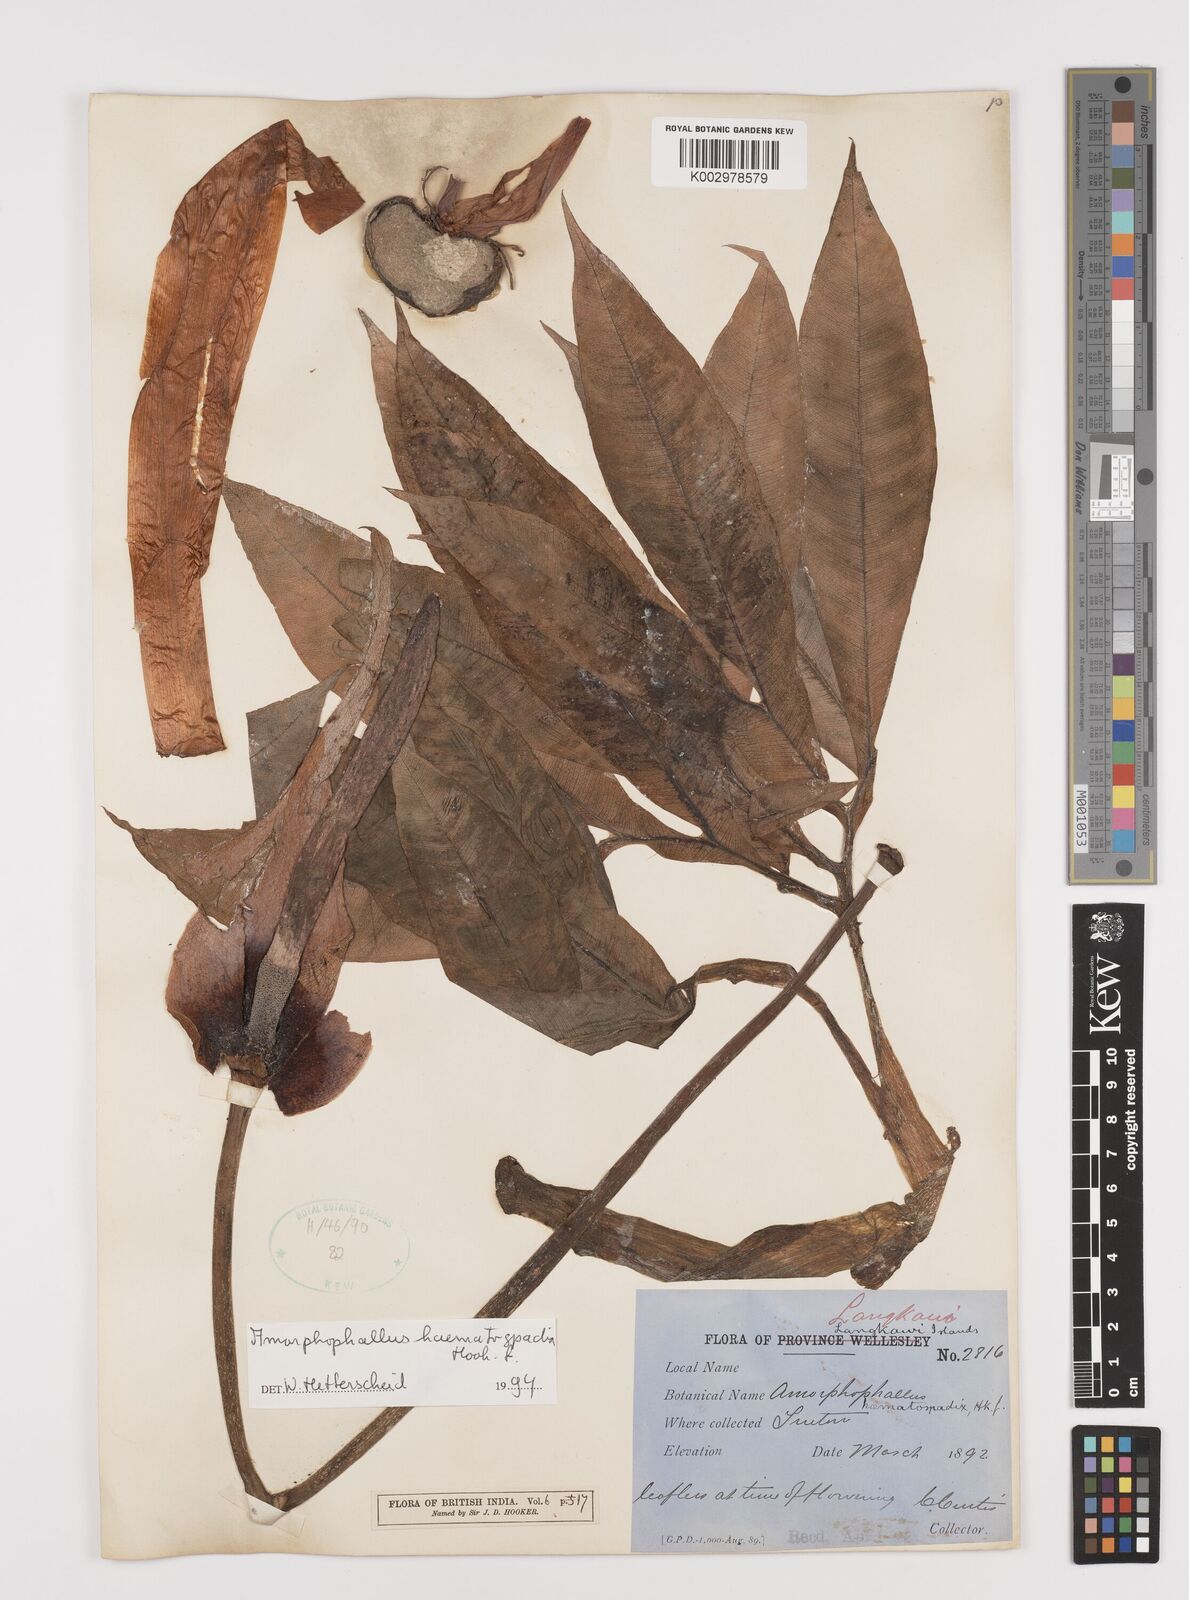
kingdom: Plantae
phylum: Tracheophyta
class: Liliopsida
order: Alismatales
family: Araceae
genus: Amorphophallus
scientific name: Amorphophallus haematospadix
